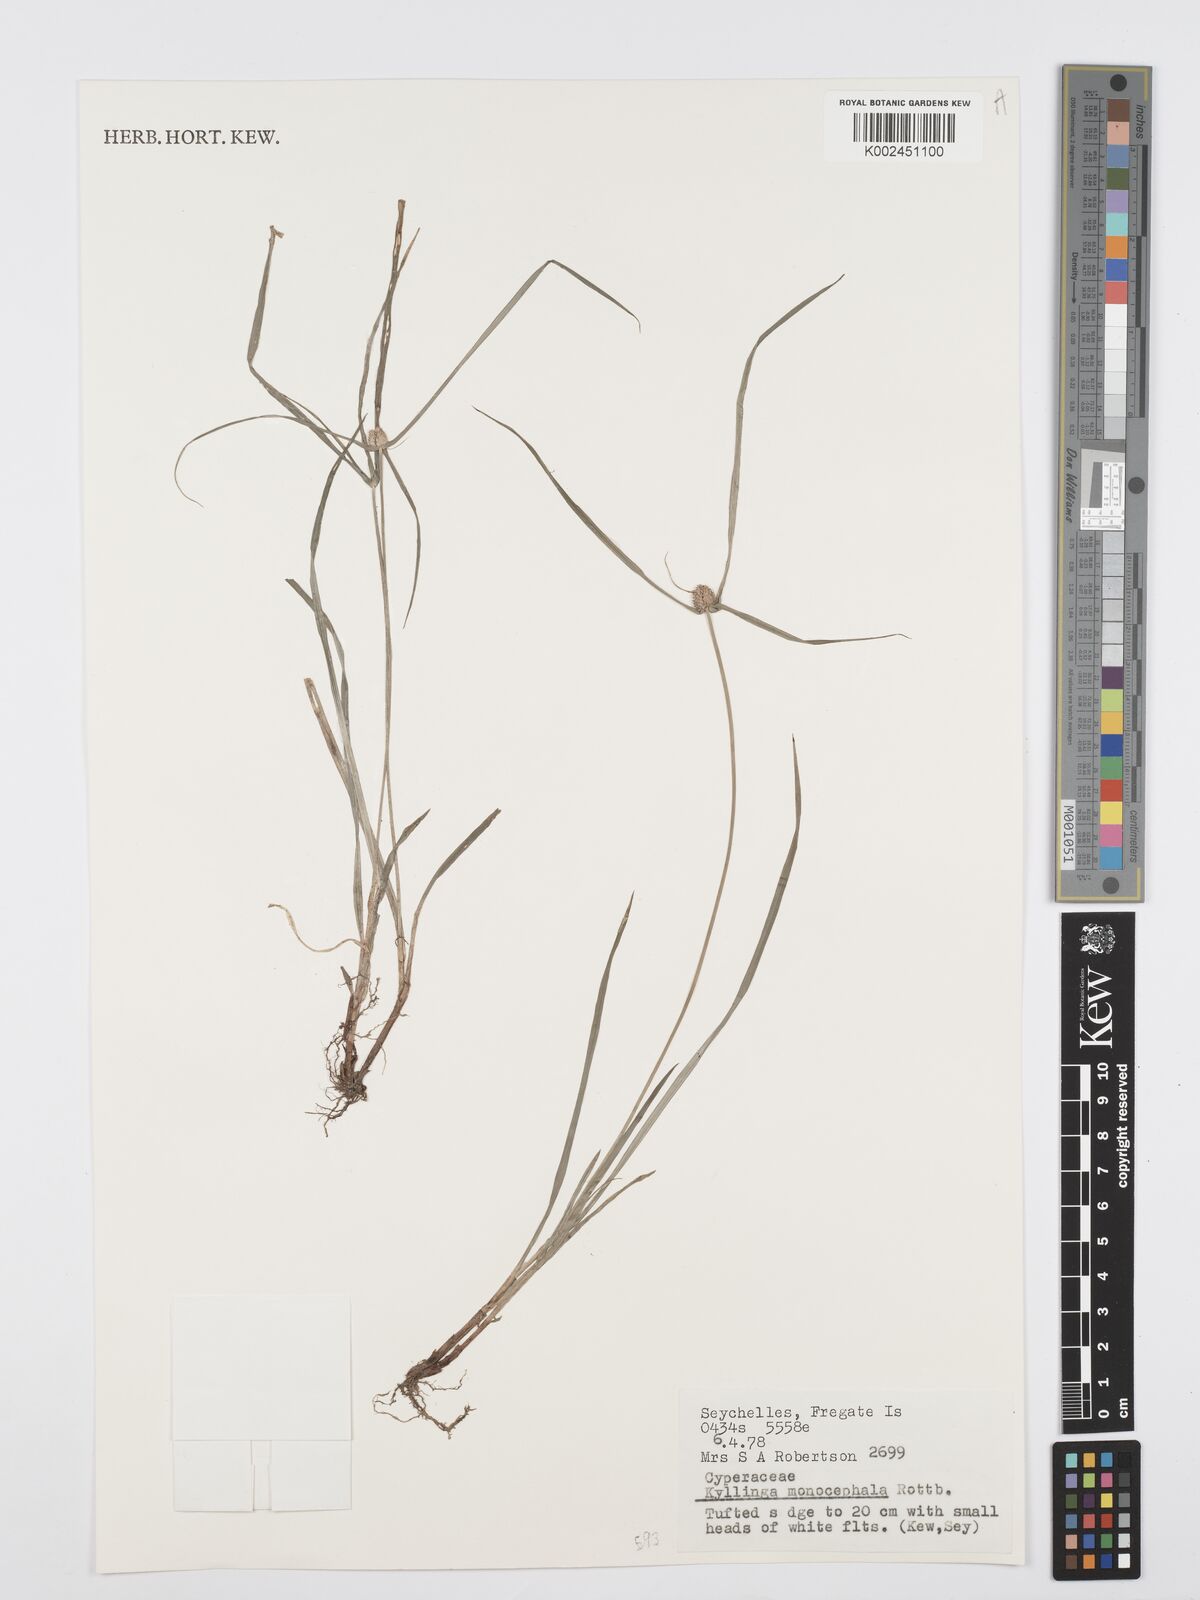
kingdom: Plantae
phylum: Tracheophyta
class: Liliopsida
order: Poales
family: Cyperaceae
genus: Cyperus
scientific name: Cyperus nemoralis
